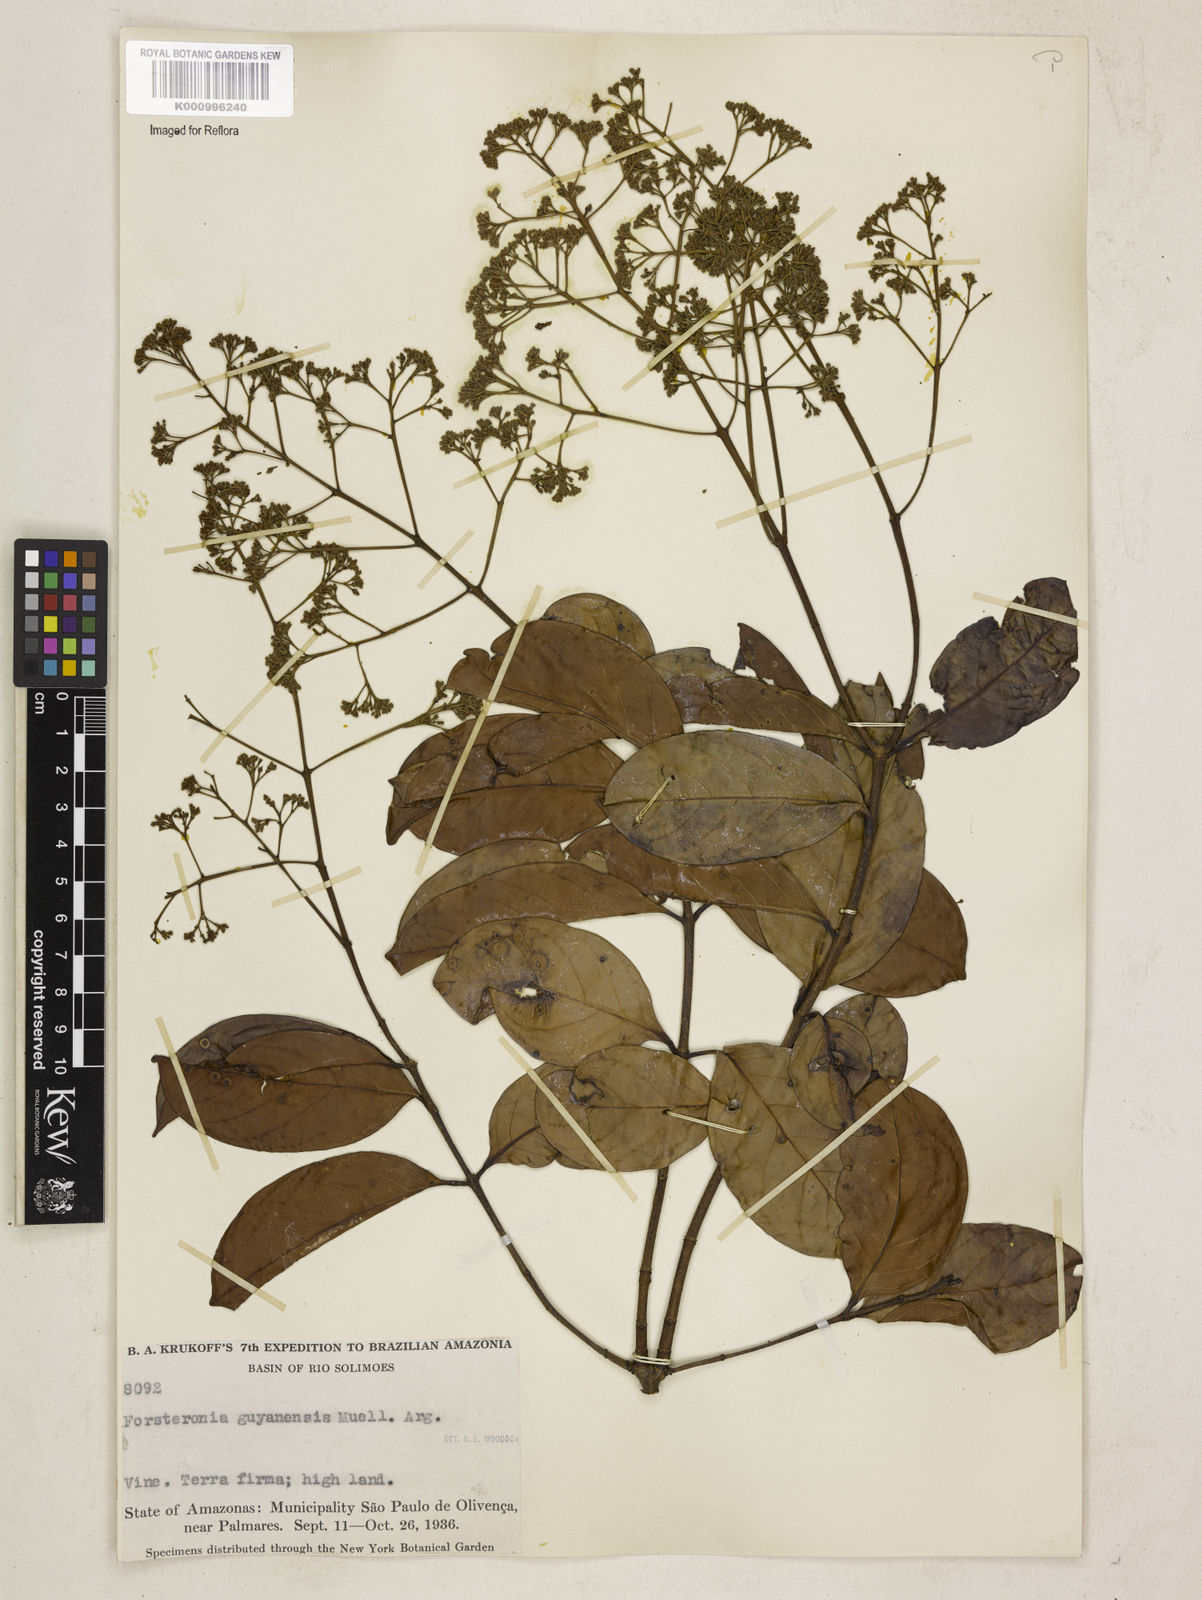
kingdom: Plantae
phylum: Tracheophyta
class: Magnoliopsida
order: Gentianales
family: Apocynaceae
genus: Forsteronia
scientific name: Forsteronia guyanensis
